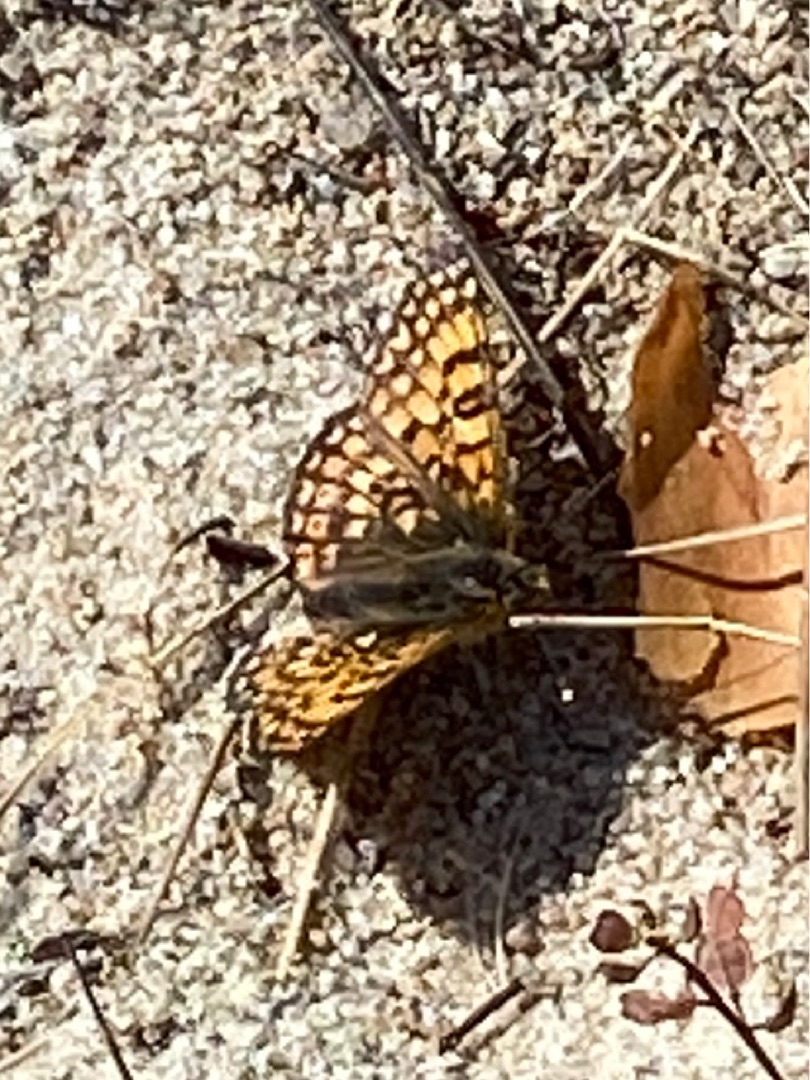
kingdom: Animalia
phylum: Arthropoda
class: Insecta
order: Lepidoptera
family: Nymphalidae
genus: Melitaea
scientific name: Melitaea cinxia
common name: Okkergul pletvinge
